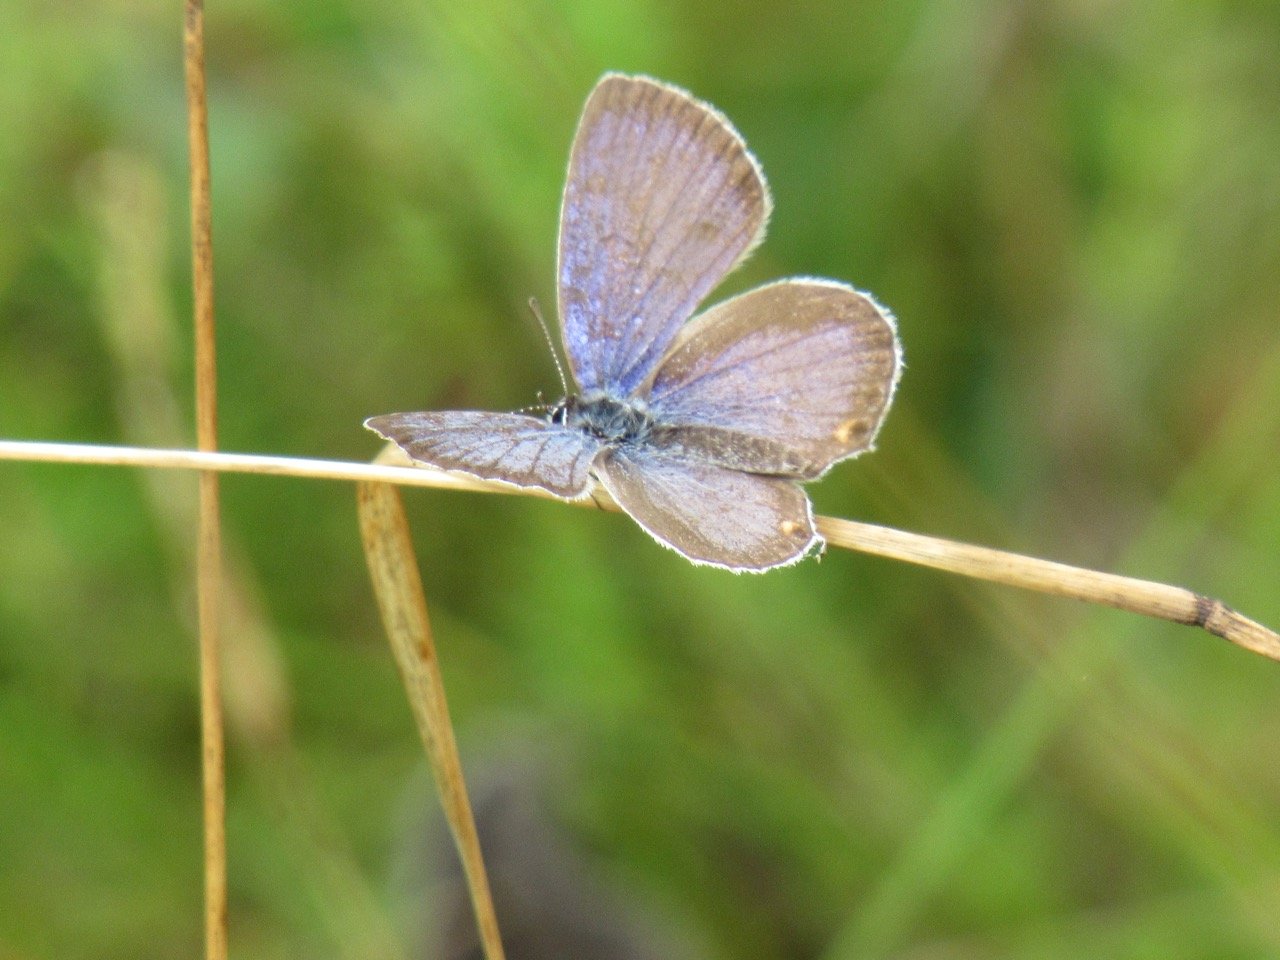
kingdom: Animalia
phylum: Arthropoda
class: Insecta
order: Lepidoptera
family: Lycaenidae
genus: Elkalyce
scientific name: Elkalyce comyntas
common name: Eastern Tailed-Blue
